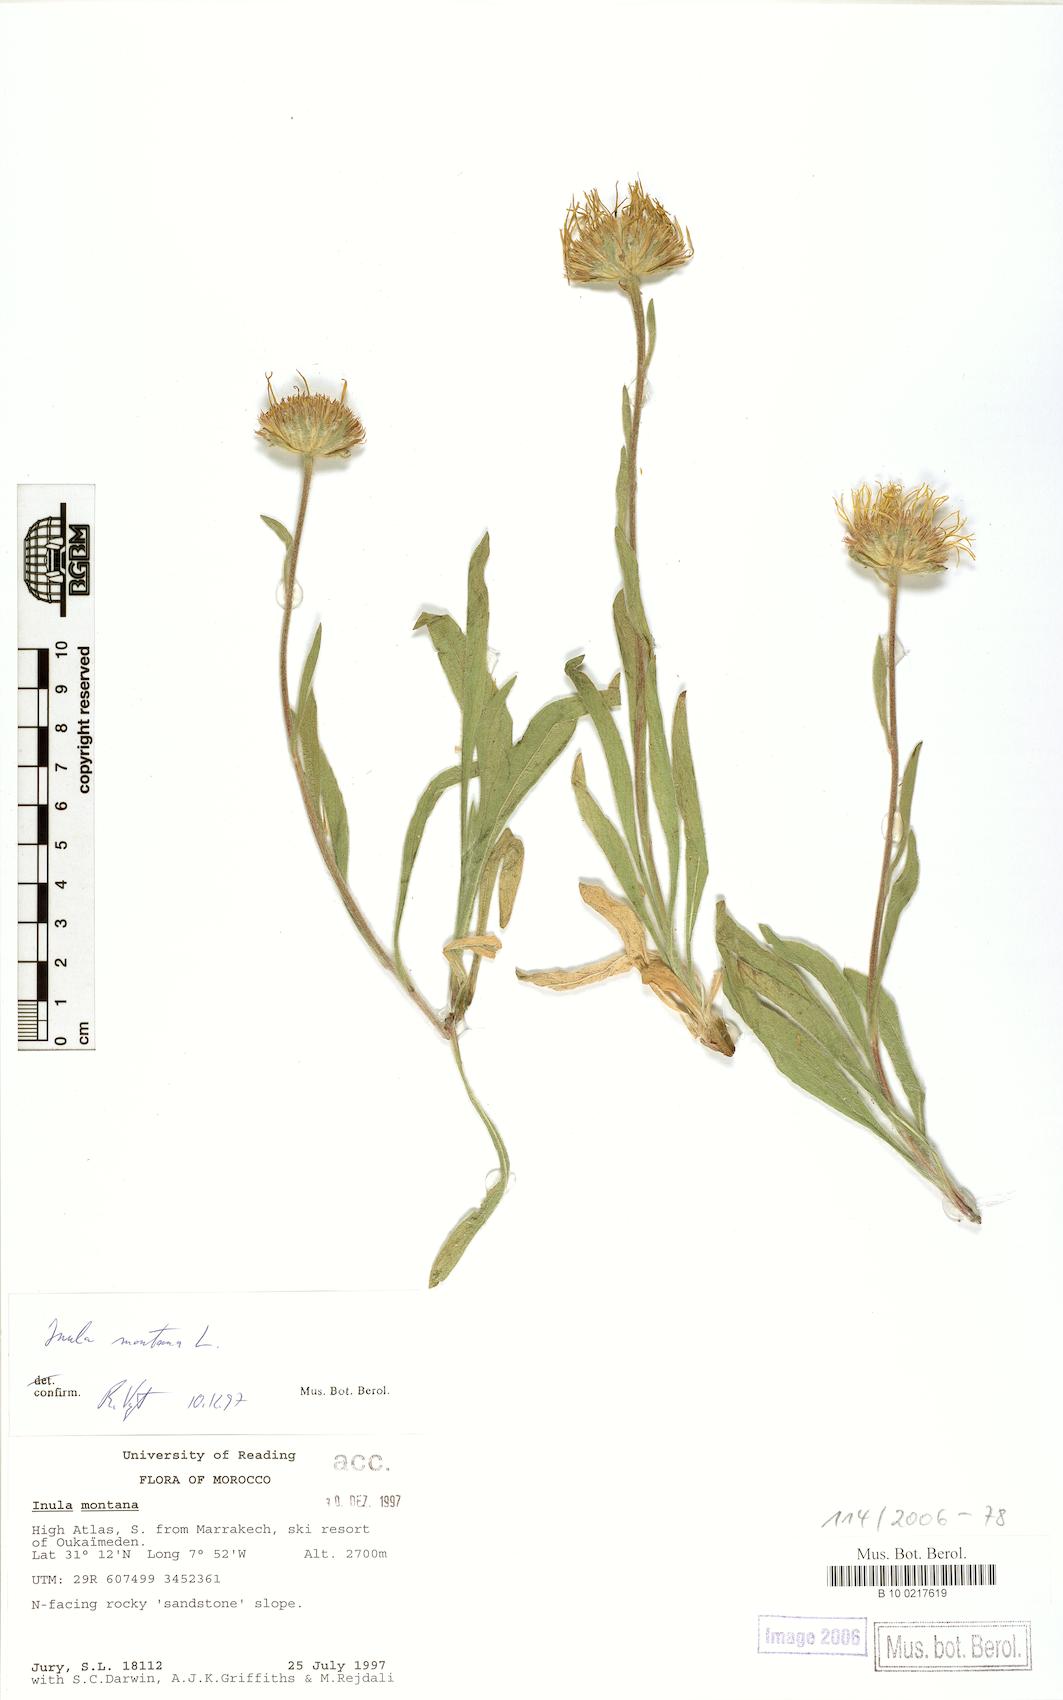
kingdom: Plantae
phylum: Tracheophyta
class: Magnoliopsida
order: Asterales
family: Asteraceae
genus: Pentanema
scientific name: Pentanema montanum
